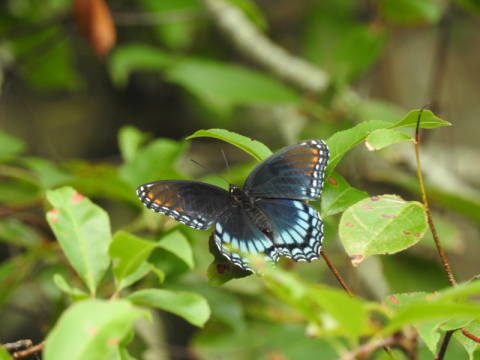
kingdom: Animalia
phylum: Arthropoda
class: Insecta
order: Lepidoptera
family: Nymphalidae
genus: Limenitis
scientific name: Limenitis arthemis
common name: Red-spotted Admiral
